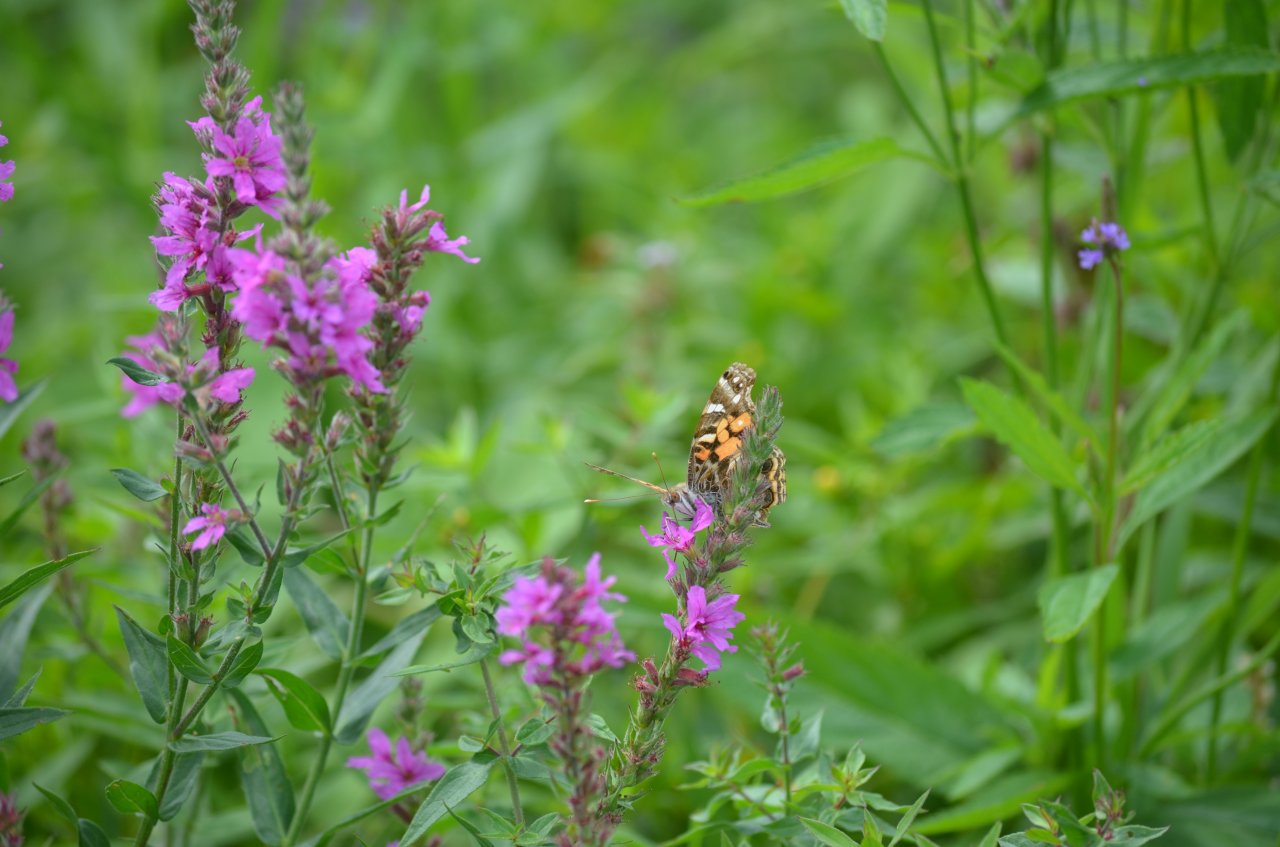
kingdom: Animalia
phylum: Arthropoda
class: Insecta
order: Lepidoptera
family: Nymphalidae
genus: Vanessa
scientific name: Vanessa virginiensis
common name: American Lady
